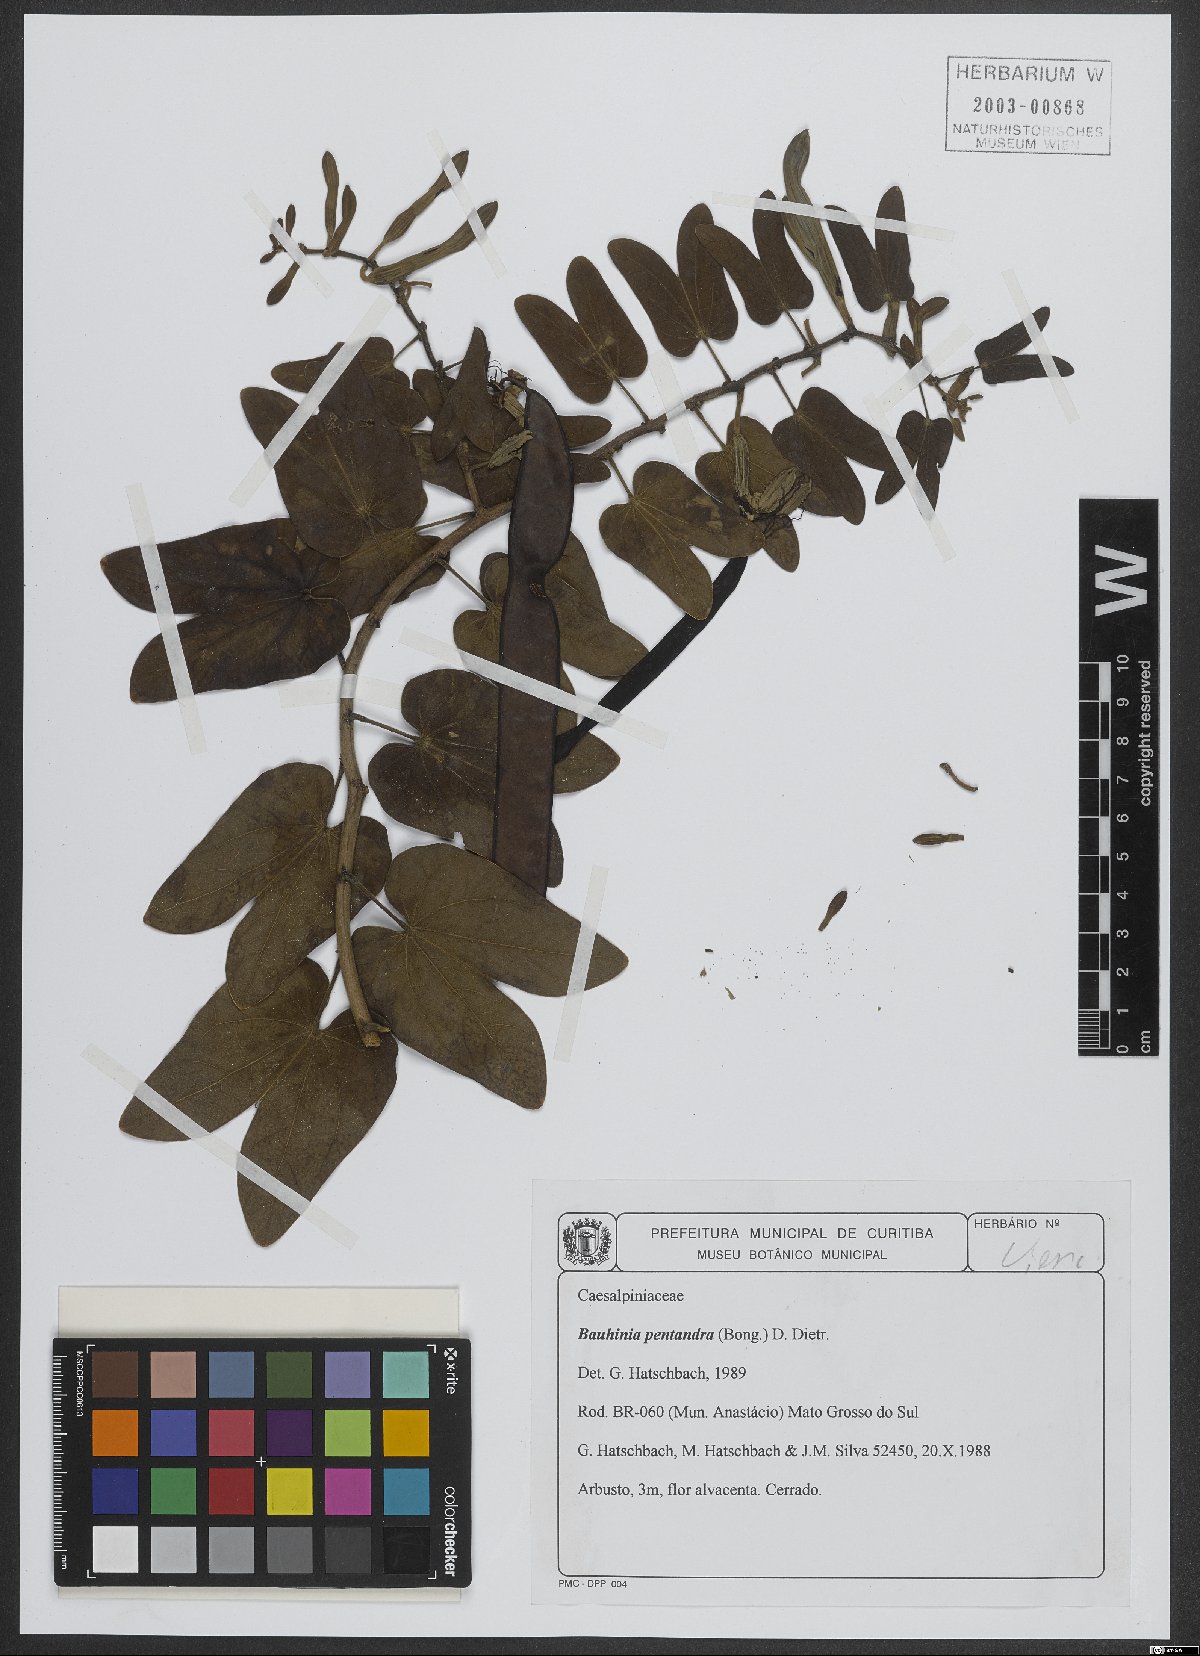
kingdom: Plantae
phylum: Tracheophyta
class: Magnoliopsida
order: Fabales
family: Fabaceae
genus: Bauhinia
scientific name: Bauhinia pentandra
